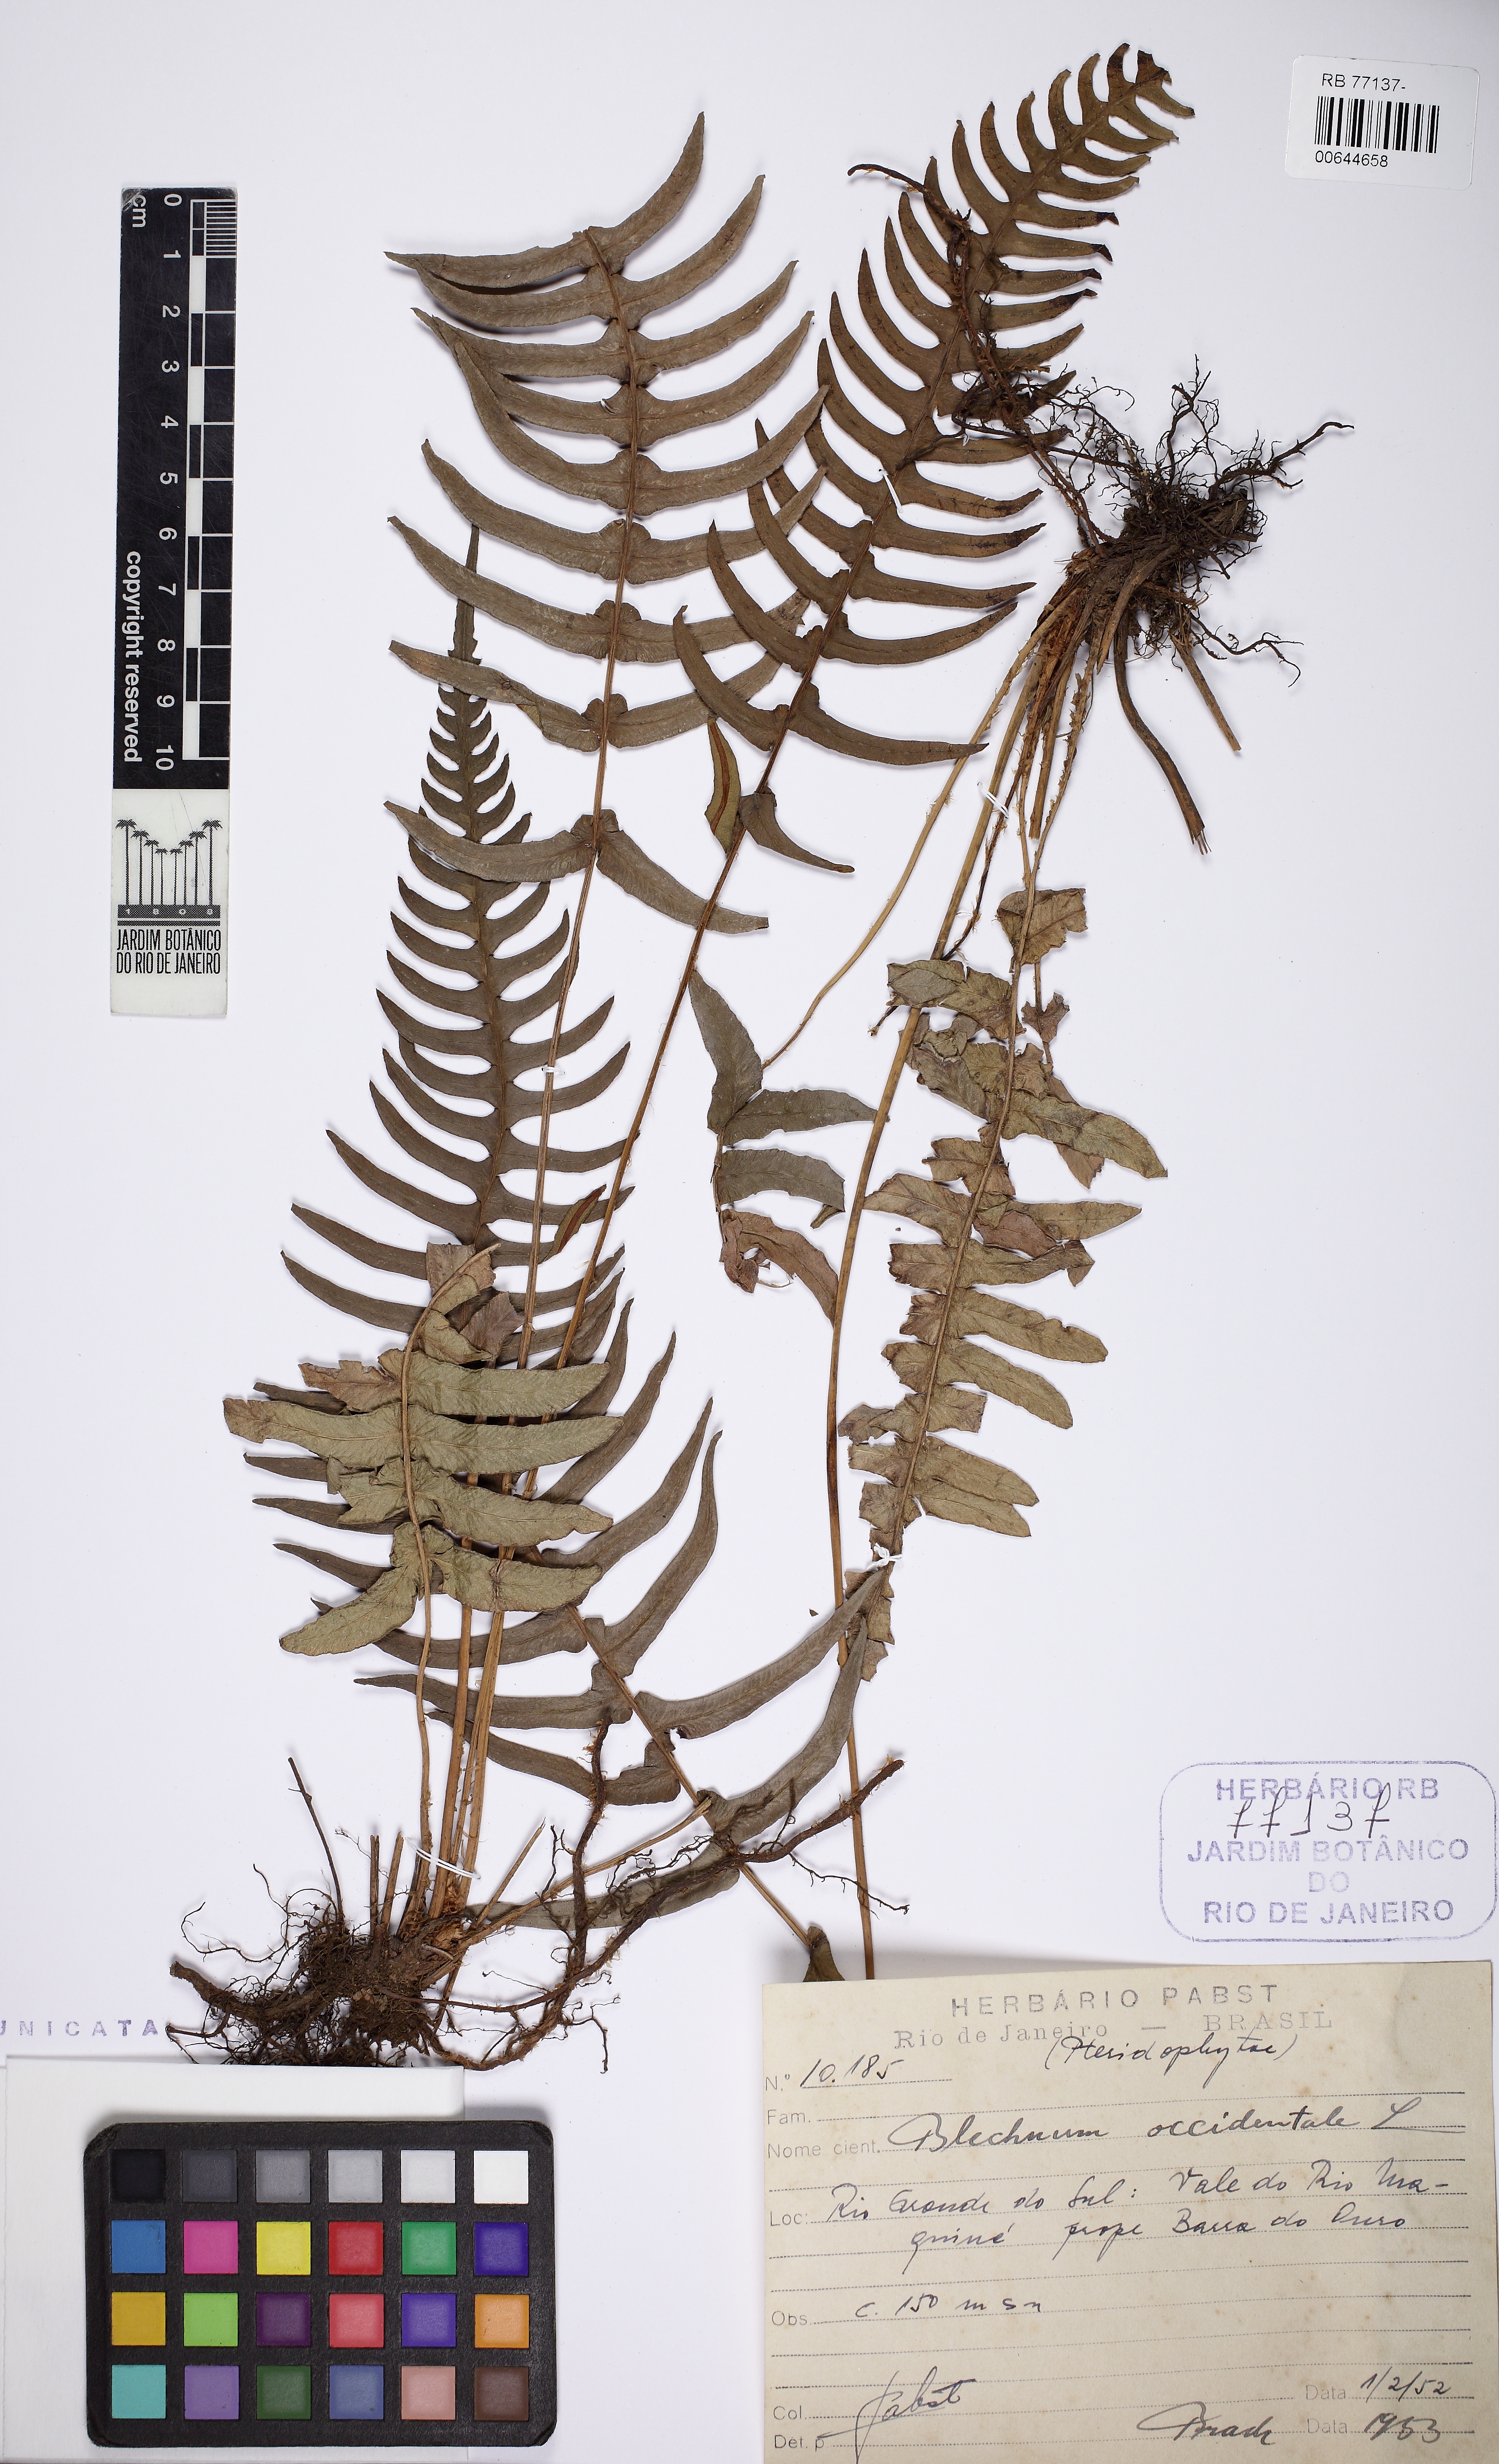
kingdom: Plantae
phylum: Tracheophyta
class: Polypodiopsida
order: Polypodiales
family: Blechnaceae
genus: Blechnum
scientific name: Blechnum occidentale
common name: Hammock fern
